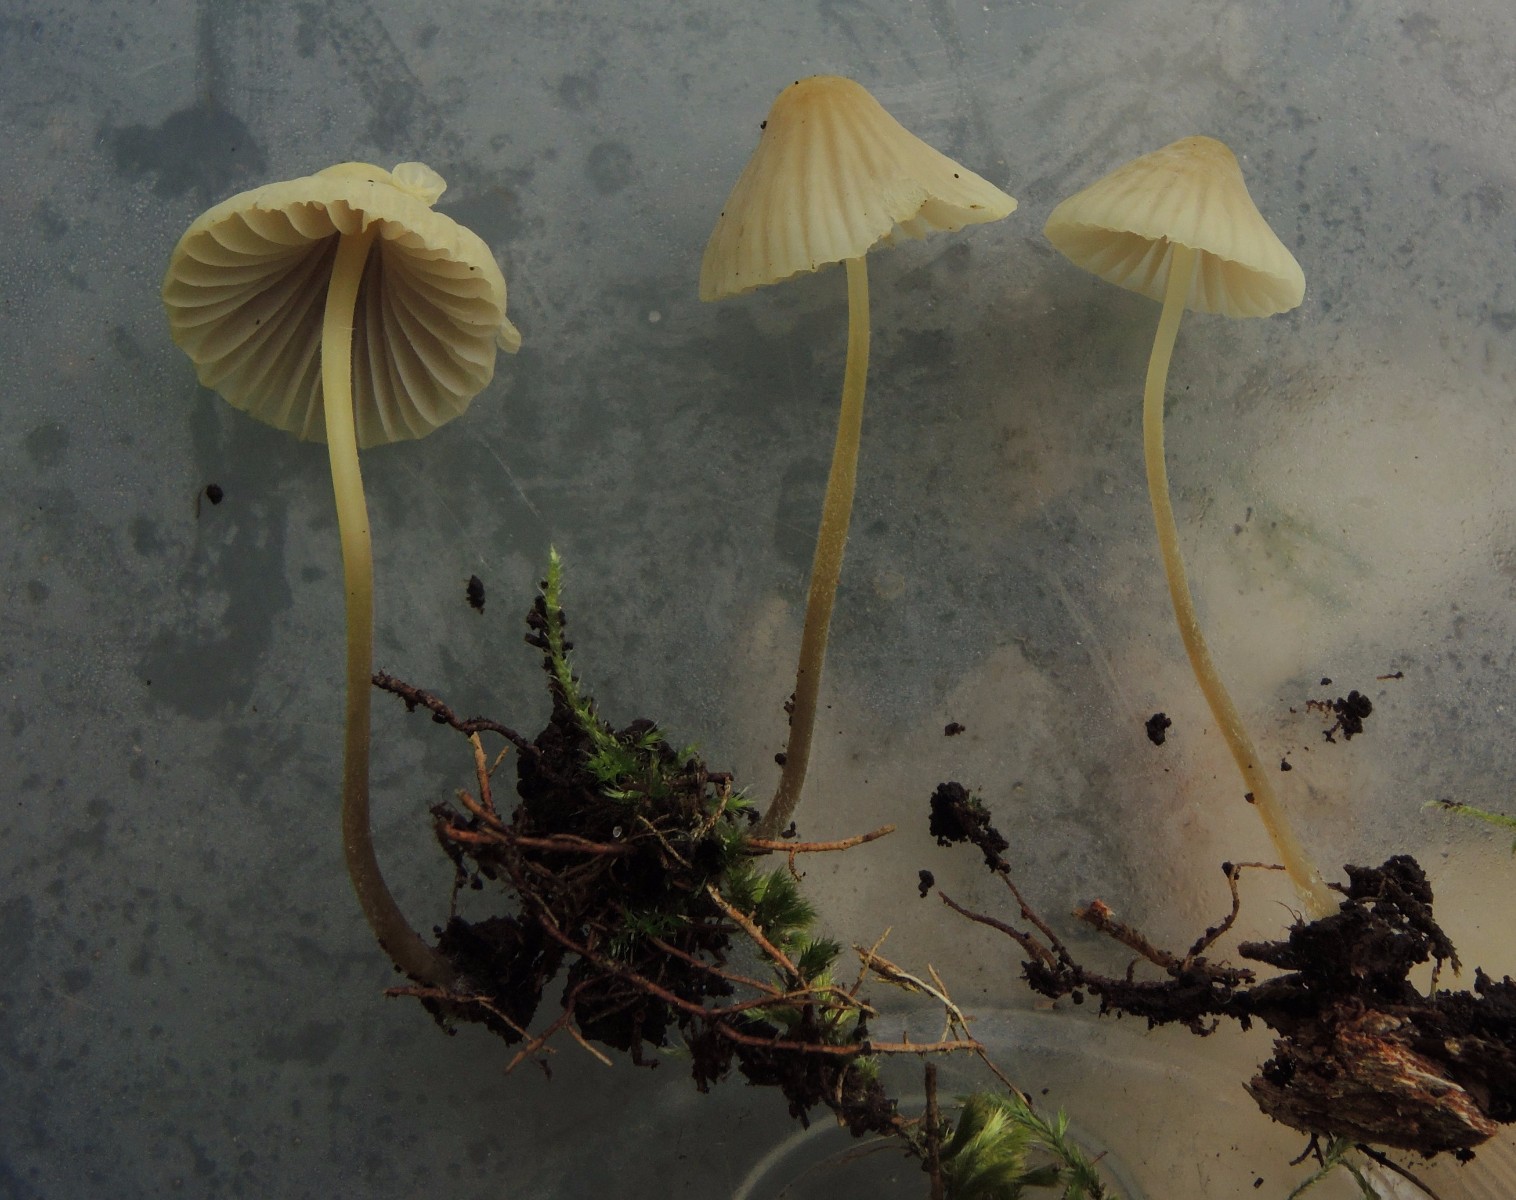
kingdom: Fungi
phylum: Basidiomycota
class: Agaricomycetes
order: Agaricales
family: Mycenaceae
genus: Mycena
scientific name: Mycena citrinomarginata
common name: gulægget huesvamp
